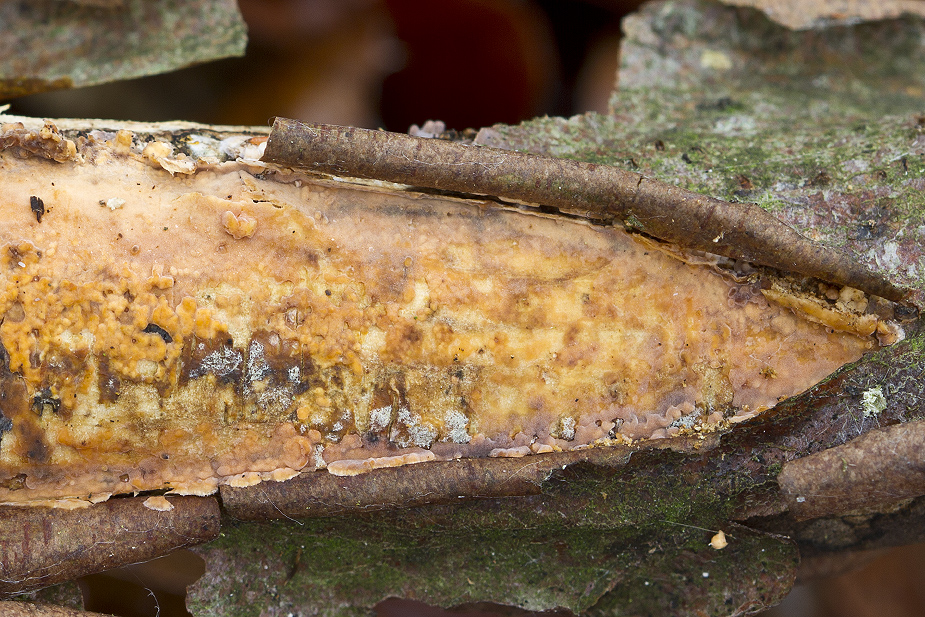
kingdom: Fungi
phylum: Basidiomycota
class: Agaricomycetes
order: Russulales
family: Peniophoraceae
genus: Peniophora
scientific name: Peniophora laeta
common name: tandet voksskind
